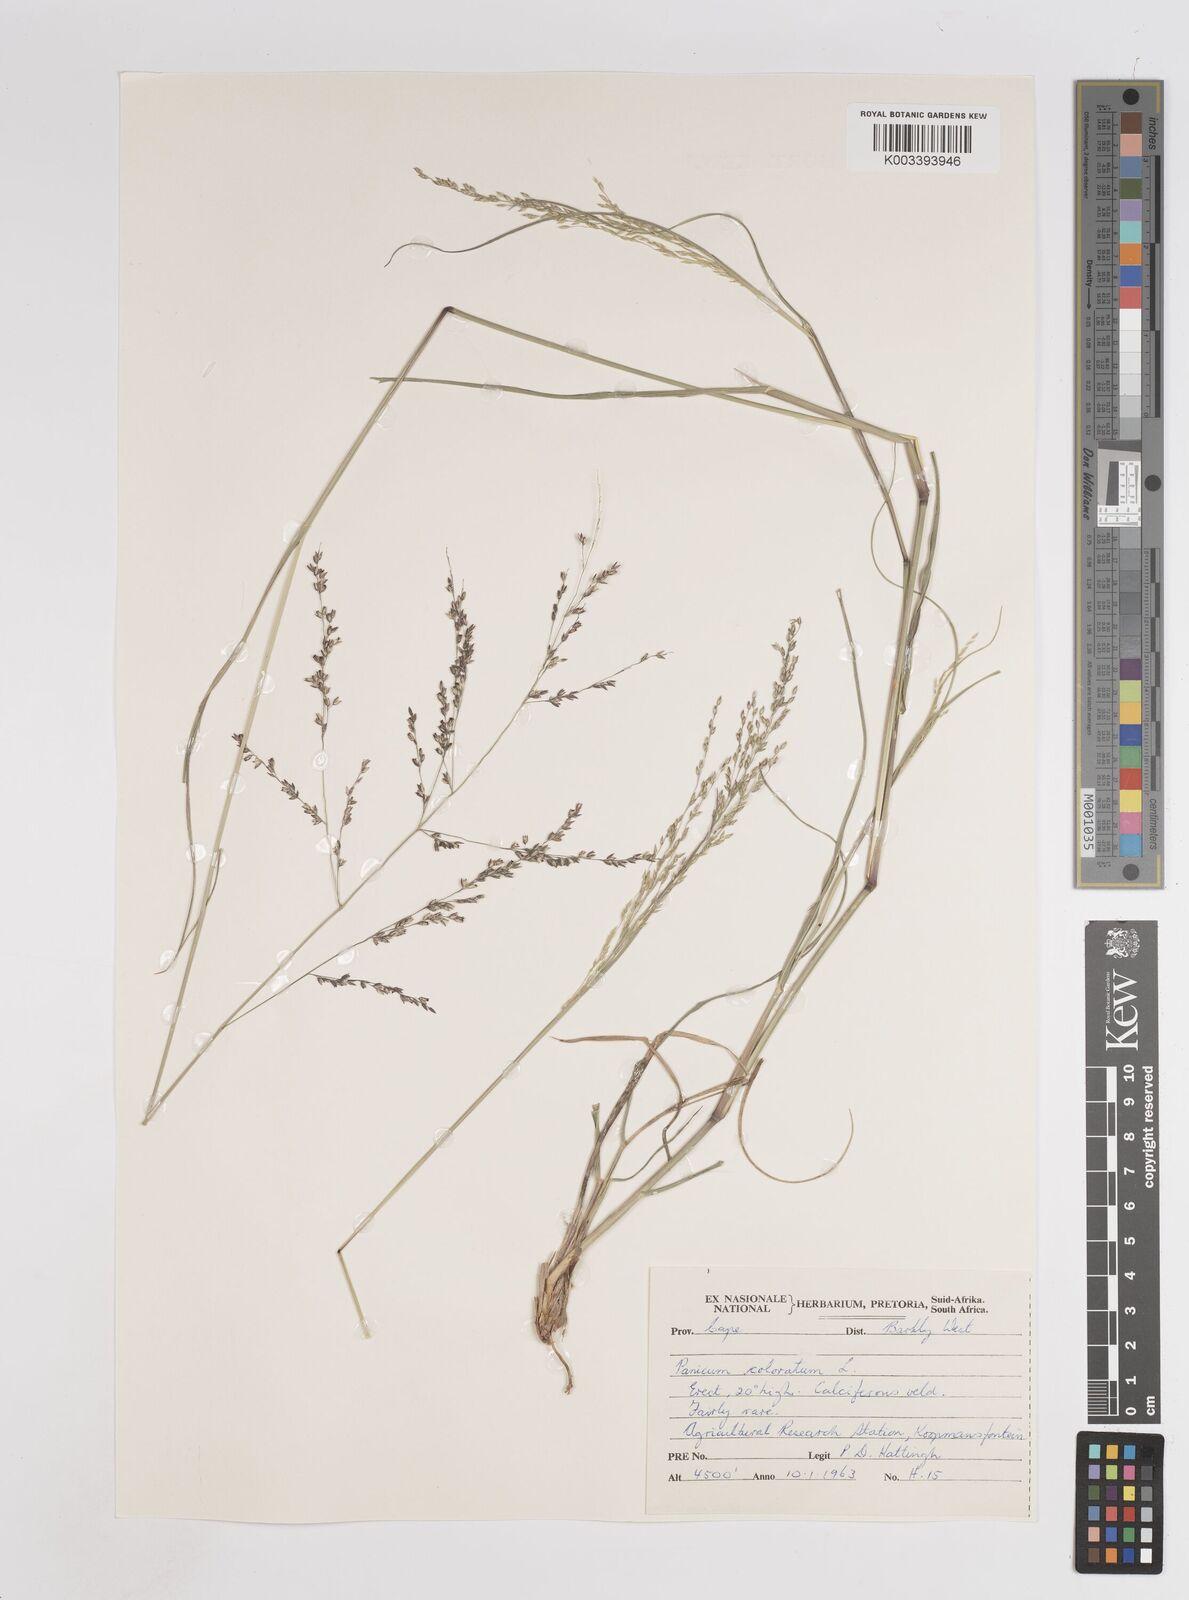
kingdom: Plantae
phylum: Tracheophyta
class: Liliopsida
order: Poales
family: Poaceae
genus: Panicum
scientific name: Panicum coloratum
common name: Kleingrass
